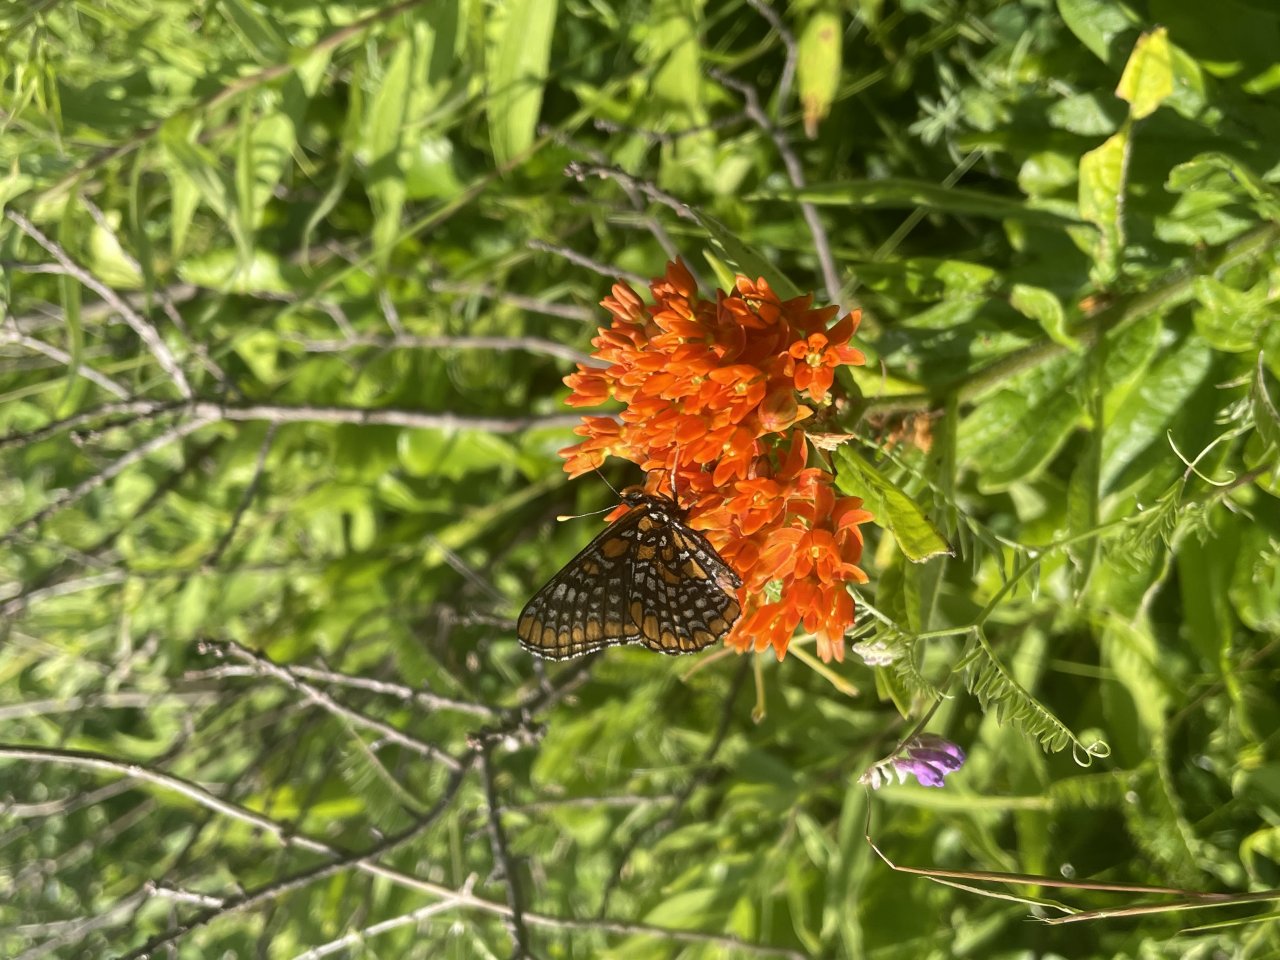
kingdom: Animalia
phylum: Arthropoda
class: Insecta
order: Lepidoptera
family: Nymphalidae
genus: Euphydryas
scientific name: Euphydryas phaeton
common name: Baltimore Checkerspot
